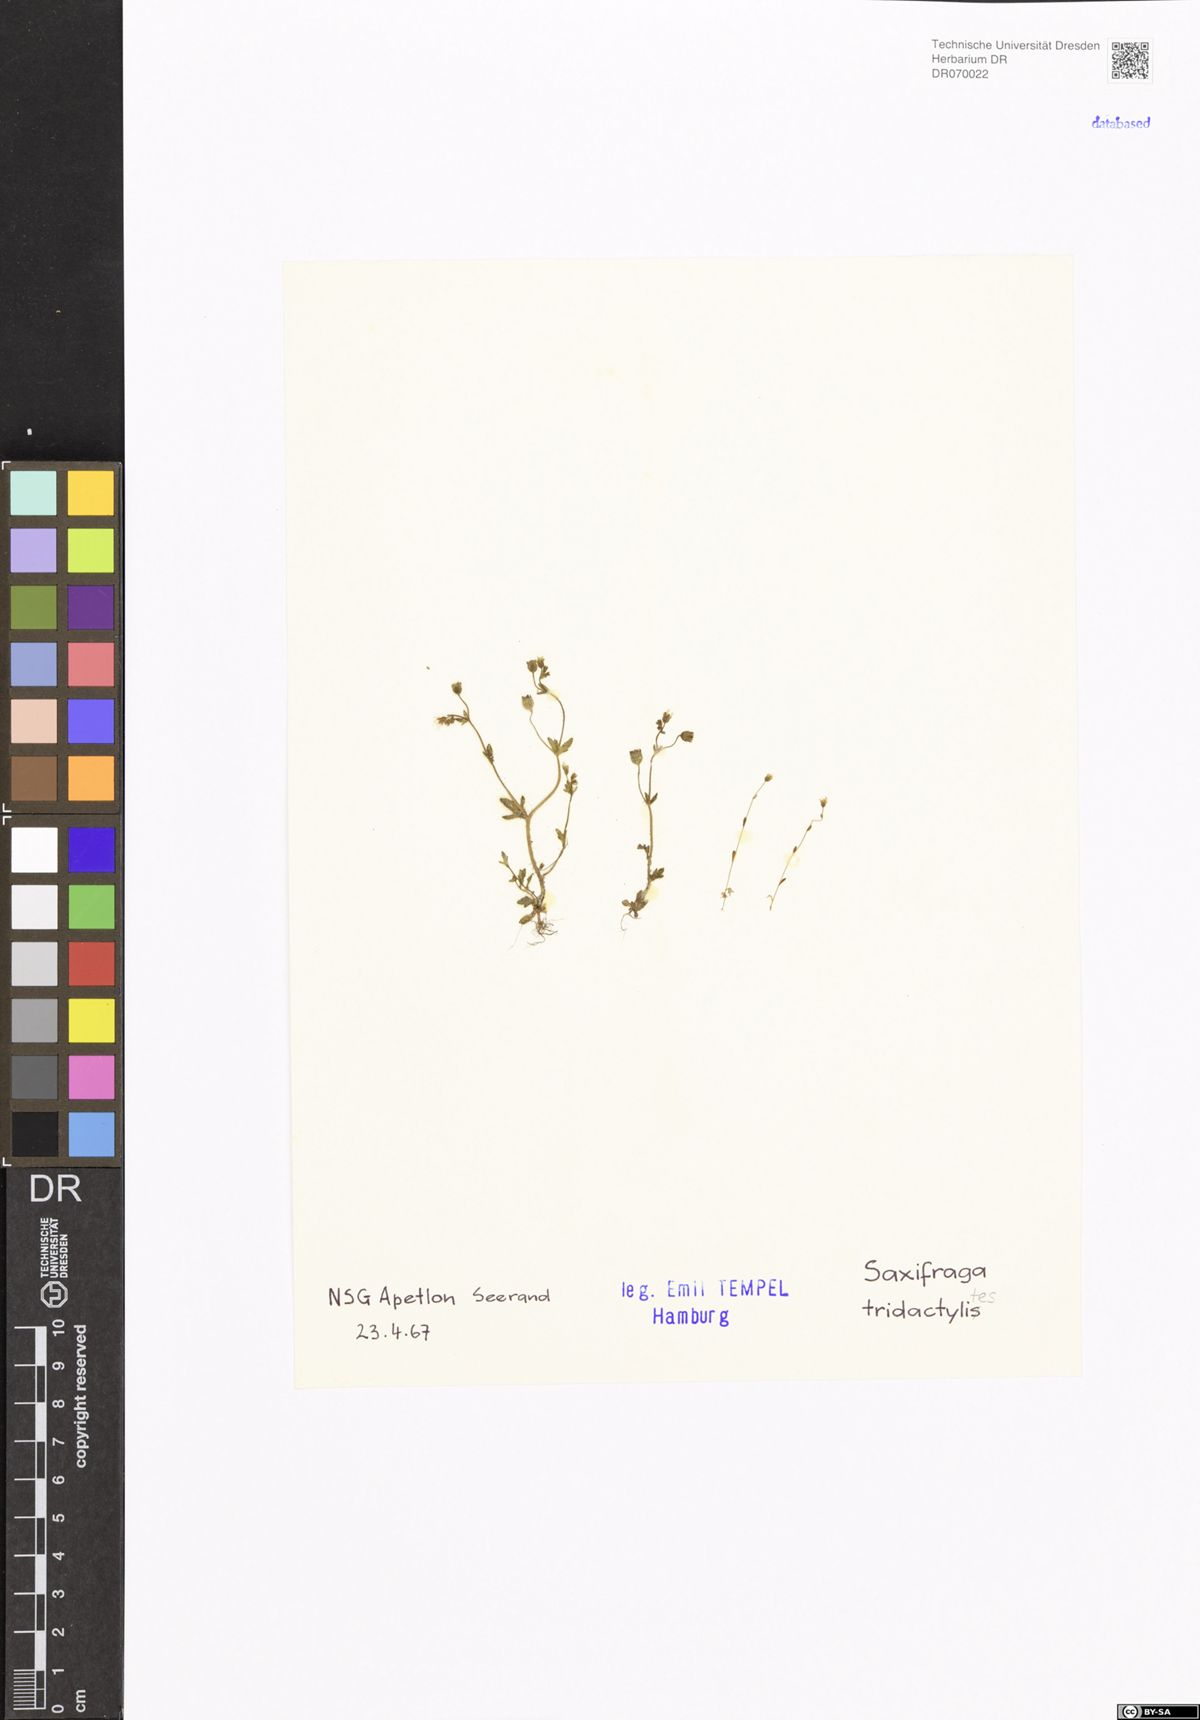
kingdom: Plantae
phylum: Tracheophyta
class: Magnoliopsida
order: Saxifragales
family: Saxifragaceae
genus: Saxifraga
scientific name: Saxifraga tridactylites
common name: Rue-leaved saxifrage
